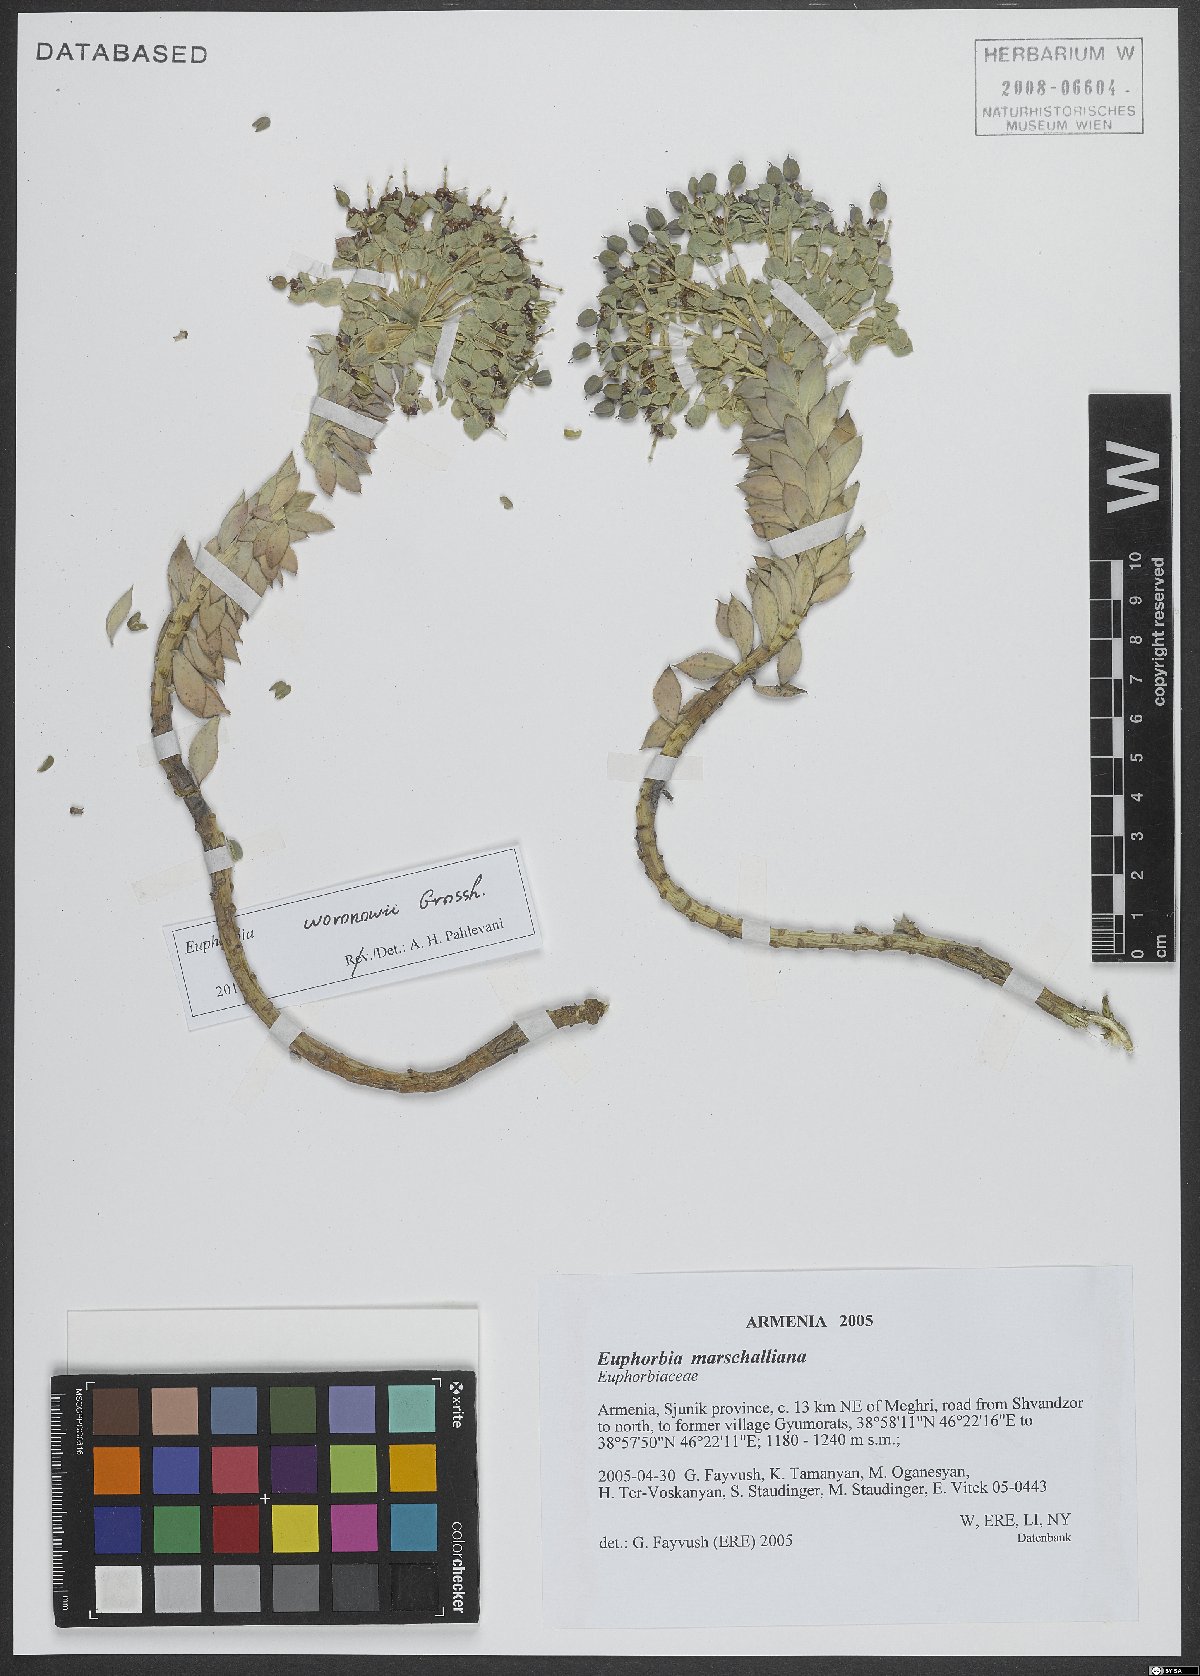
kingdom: Plantae
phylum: Tracheophyta
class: Magnoliopsida
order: Malpighiales
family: Euphorbiaceae
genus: Euphorbia
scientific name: Euphorbia marschalliana
